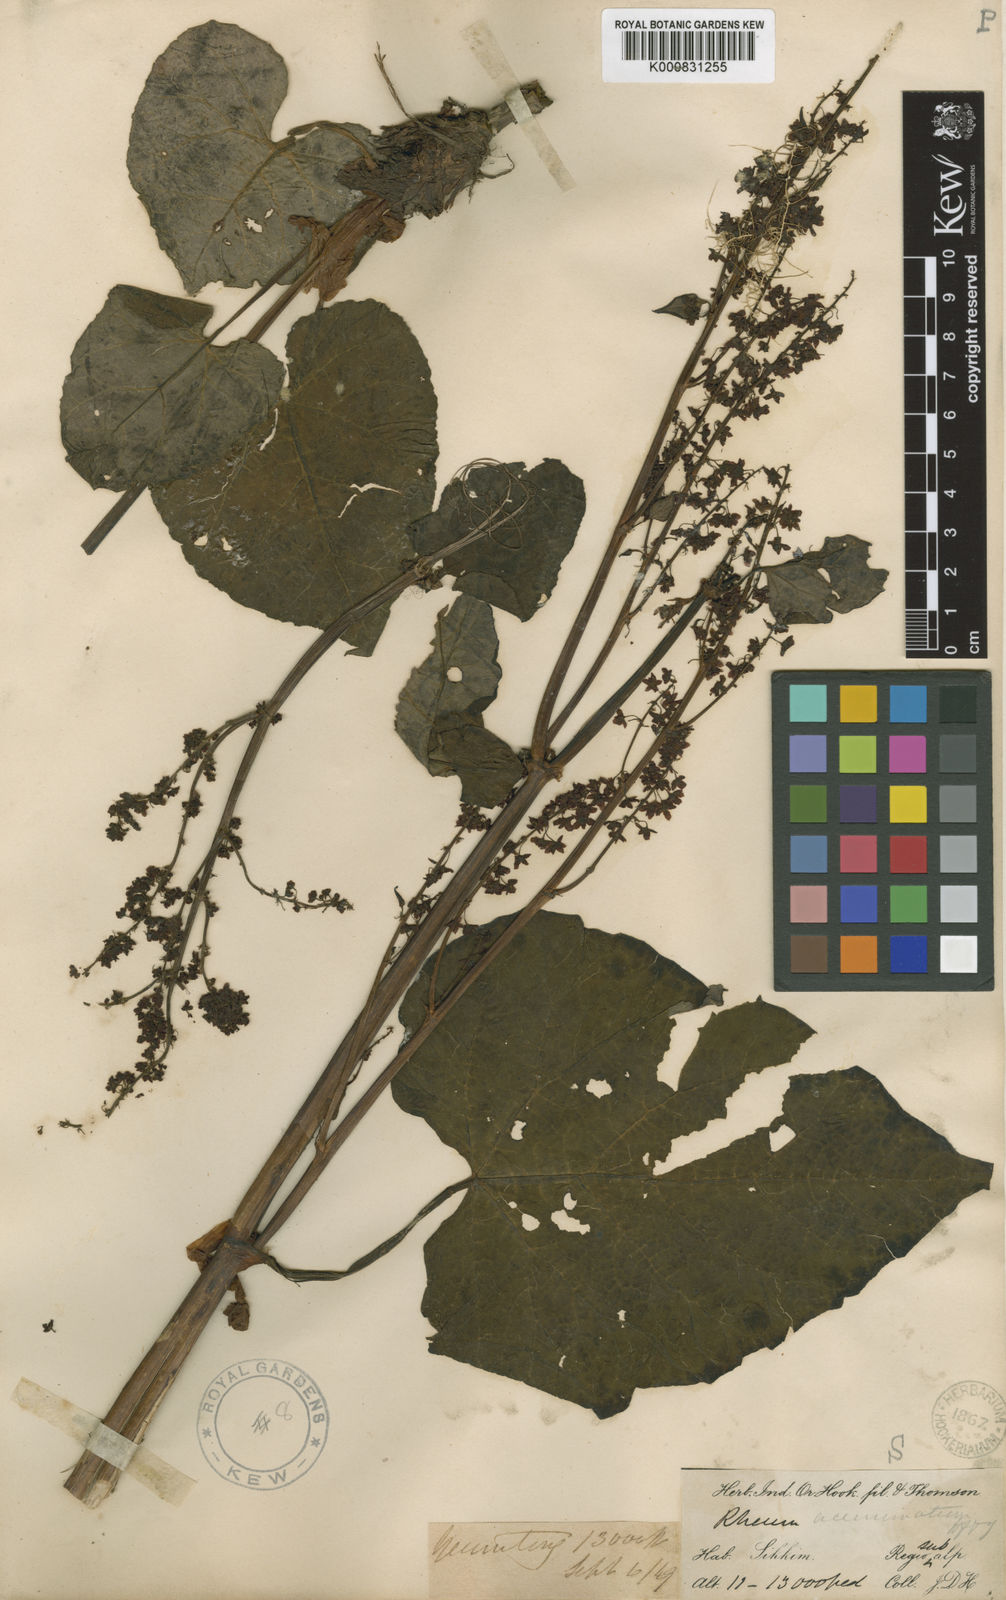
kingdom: Plantae
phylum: Tracheophyta
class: Magnoliopsida
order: Caryophyllales
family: Polygonaceae
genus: Rheum
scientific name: Rheum acuminatum
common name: Himalayan rhubarb
